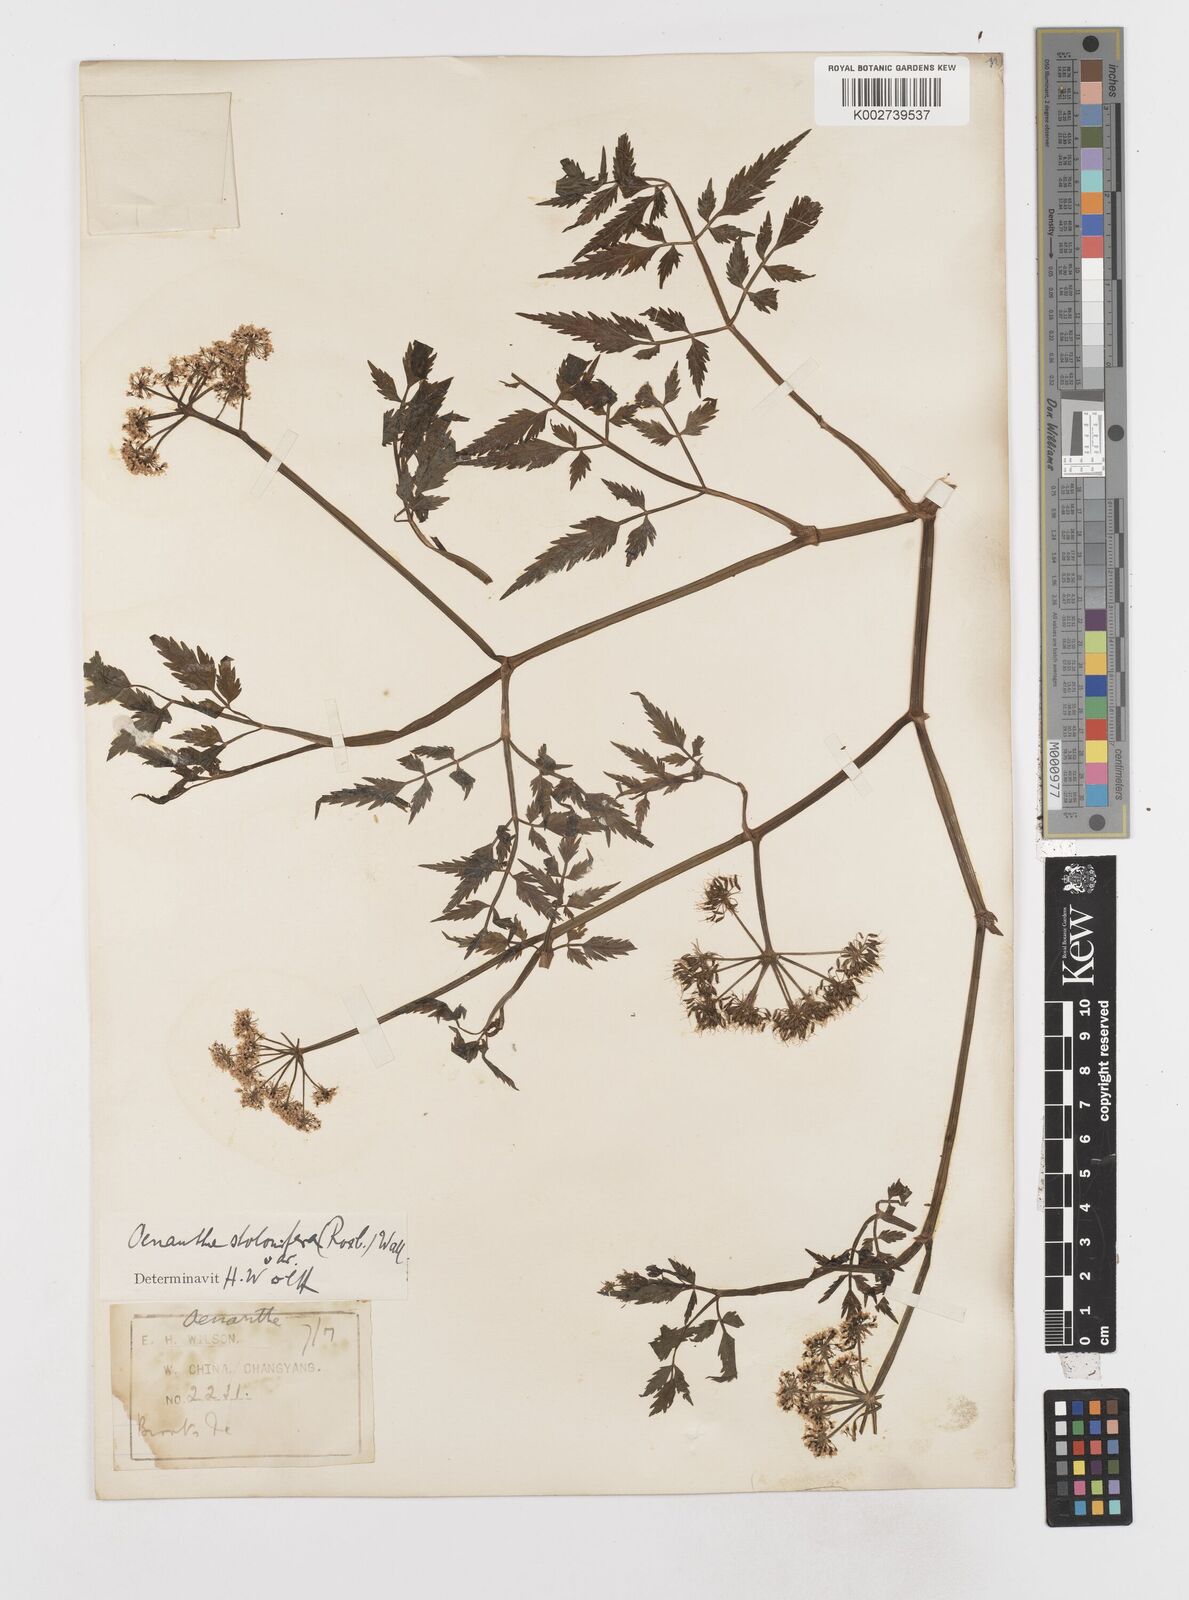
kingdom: Plantae
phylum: Tracheophyta
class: Magnoliopsida
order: Apiales
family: Apiaceae
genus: Oenanthe
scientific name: Oenanthe javanica
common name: Java water-dropwort
